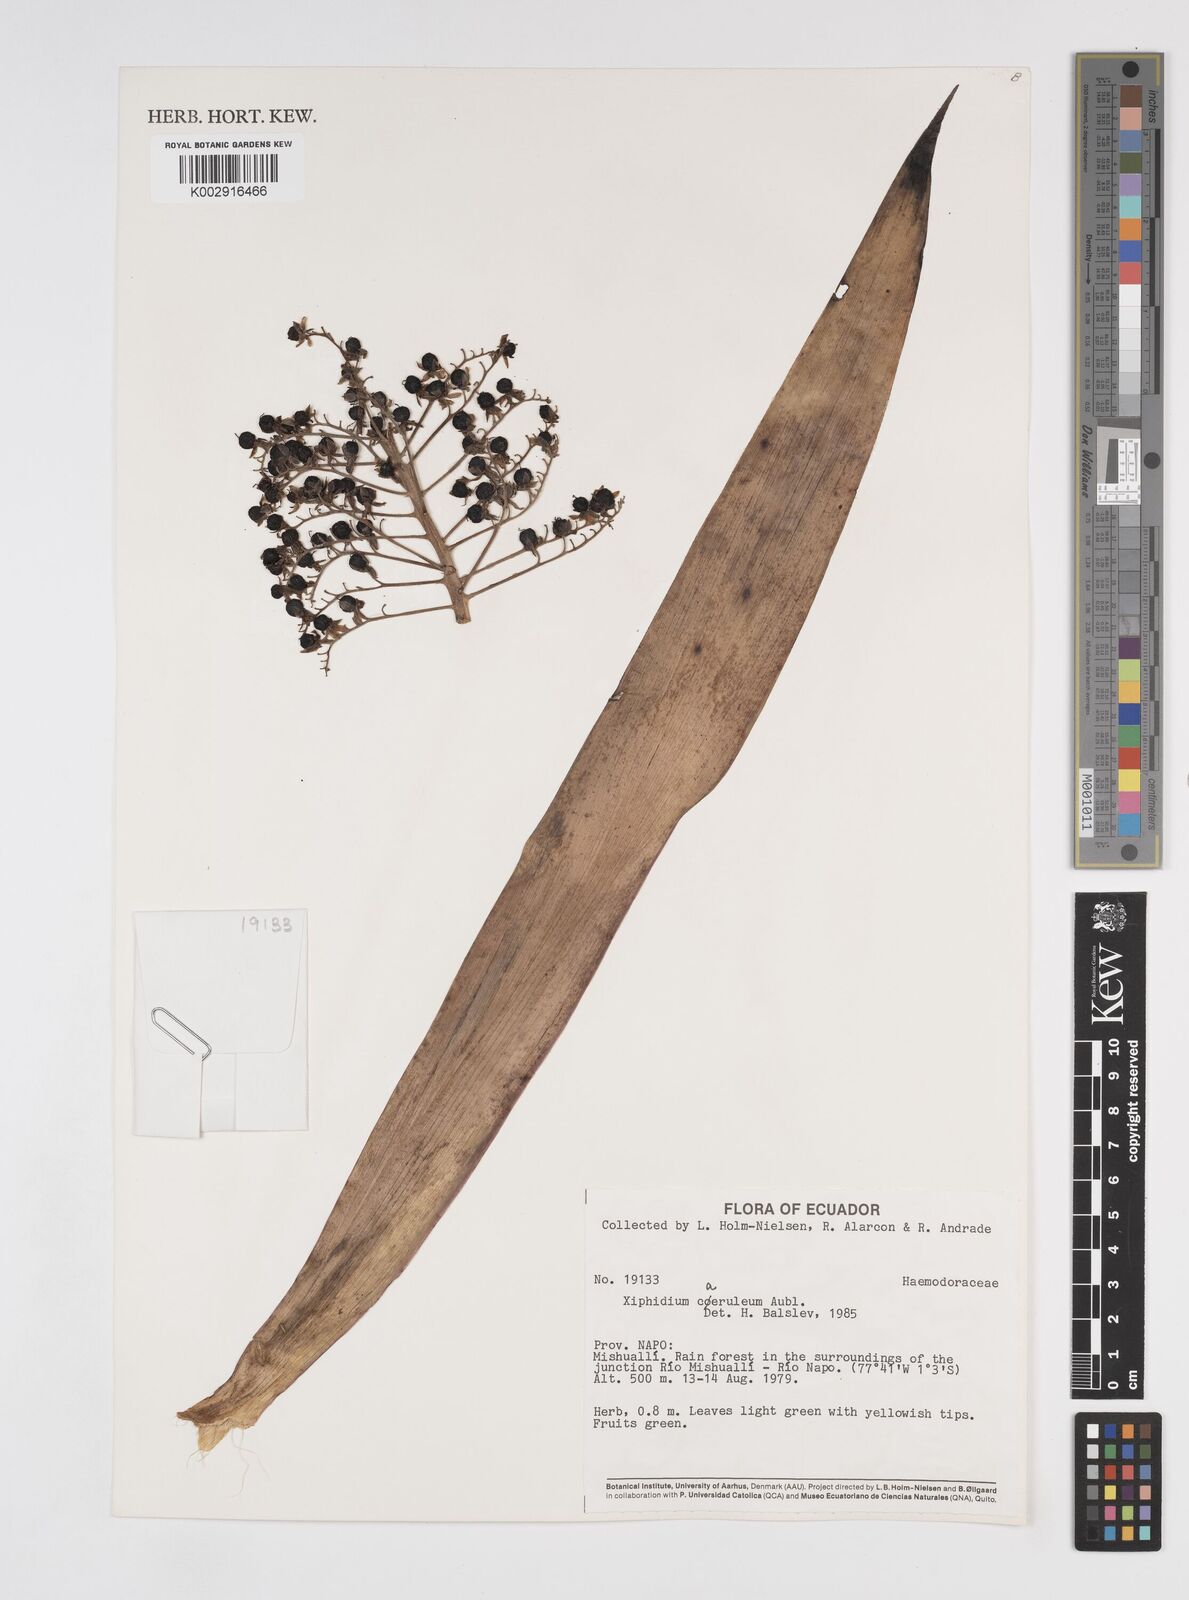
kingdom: Plantae
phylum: Tracheophyta
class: Liliopsida
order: Commelinales
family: Haemodoraceae
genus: Xiphidium
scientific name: Xiphidium caeruleum
